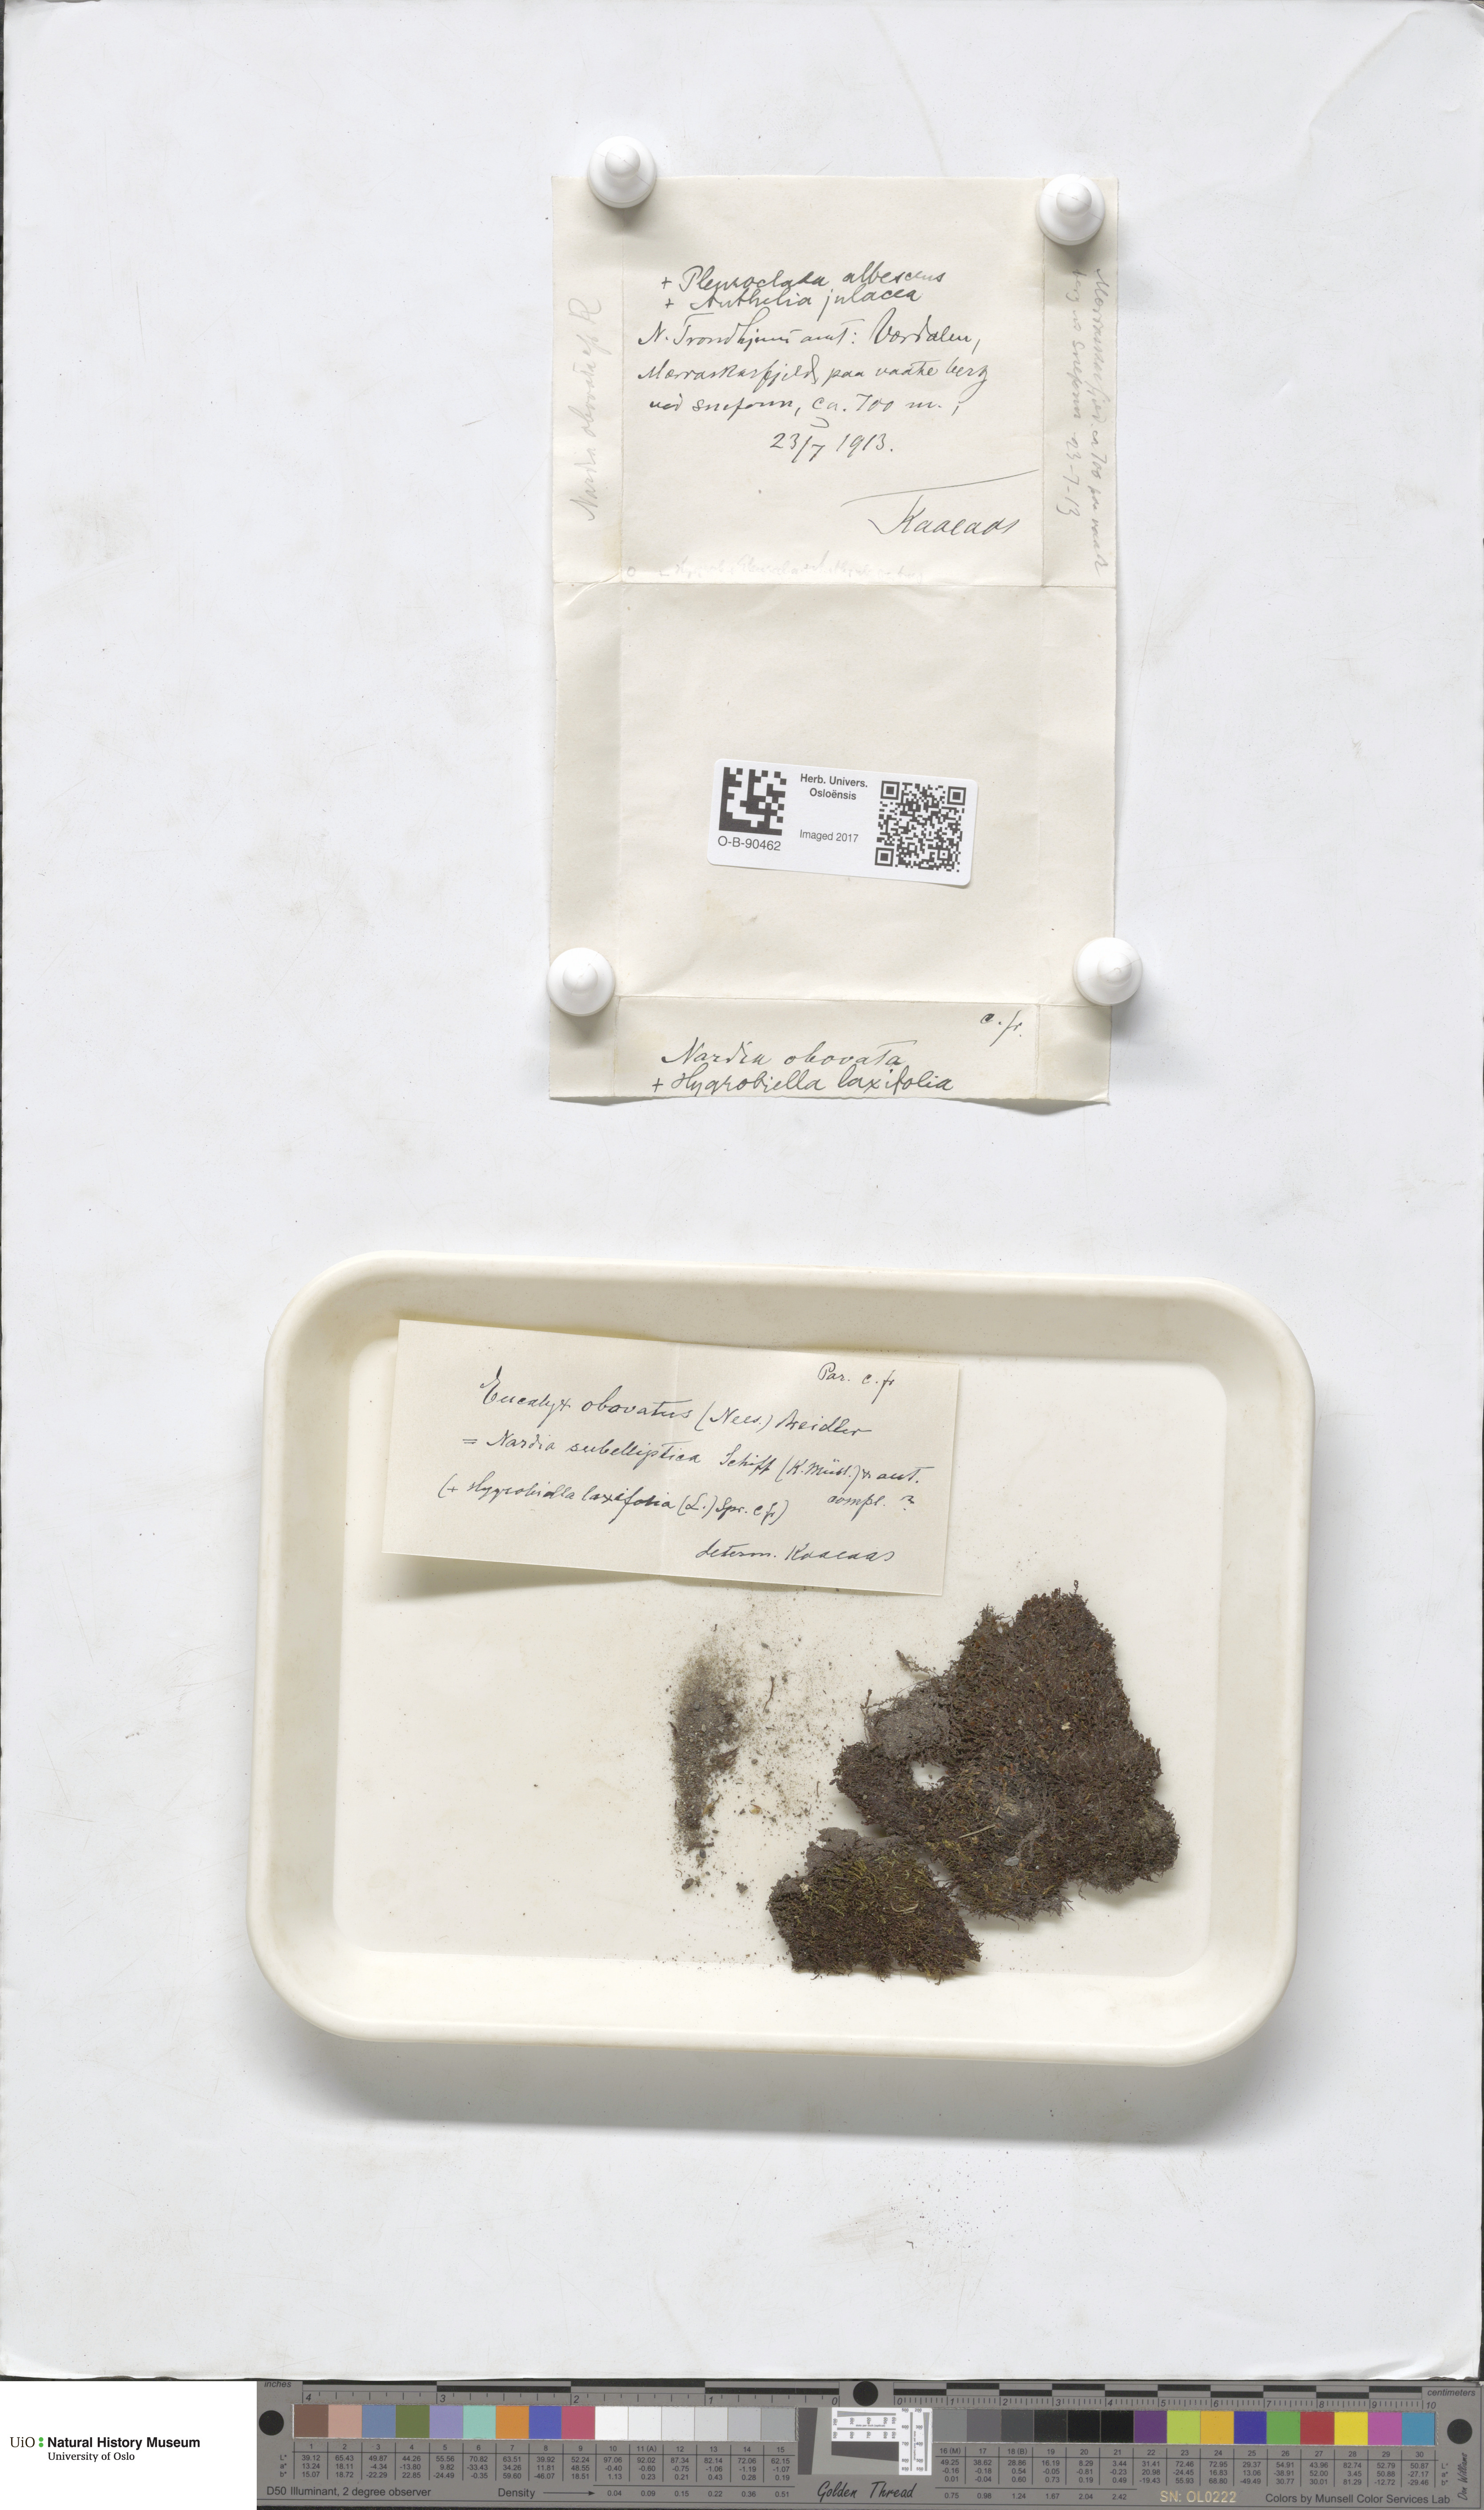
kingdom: Plantae
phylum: Marchantiophyta
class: Jungermanniopsida
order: Jungermanniales
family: Solenostomataceae
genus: Solenostoma
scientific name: Solenostoma obovatum
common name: Egg flapwort
